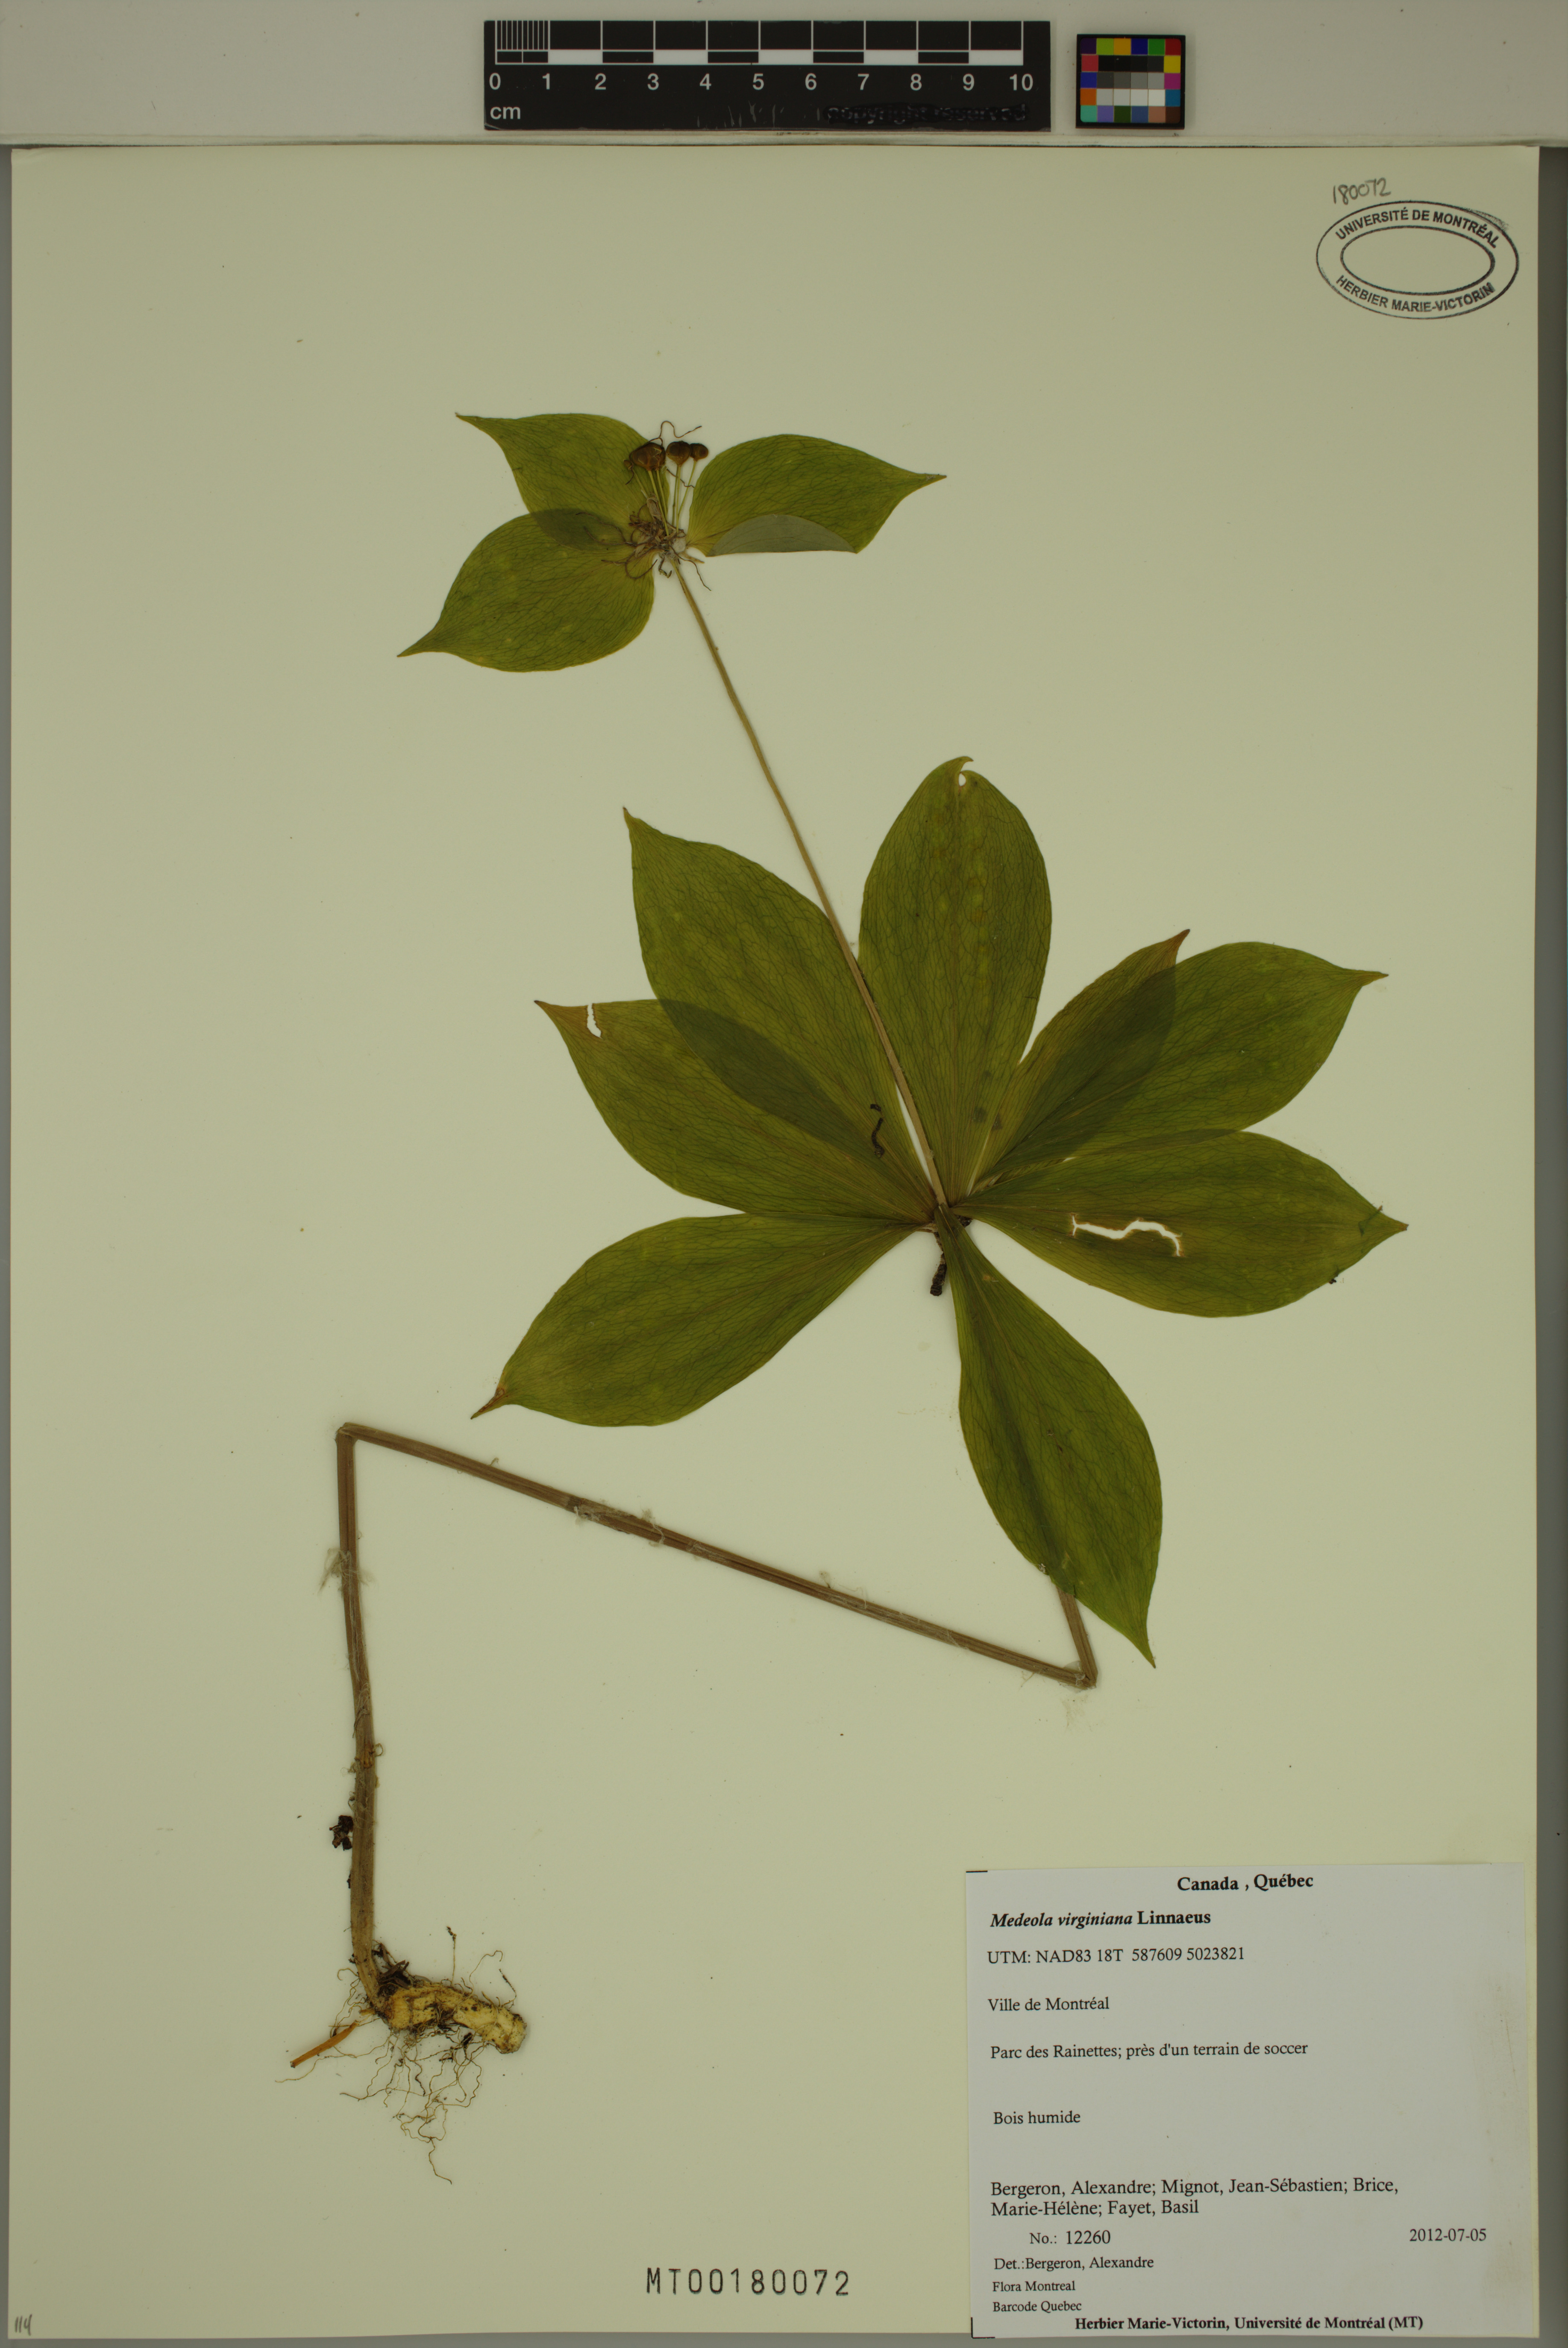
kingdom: Plantae
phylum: Tracheophyta
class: Liliopsida
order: Liliales
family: Liliaceae
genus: Medeola
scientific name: Medeola virginiana
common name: Indian cucumber-root
